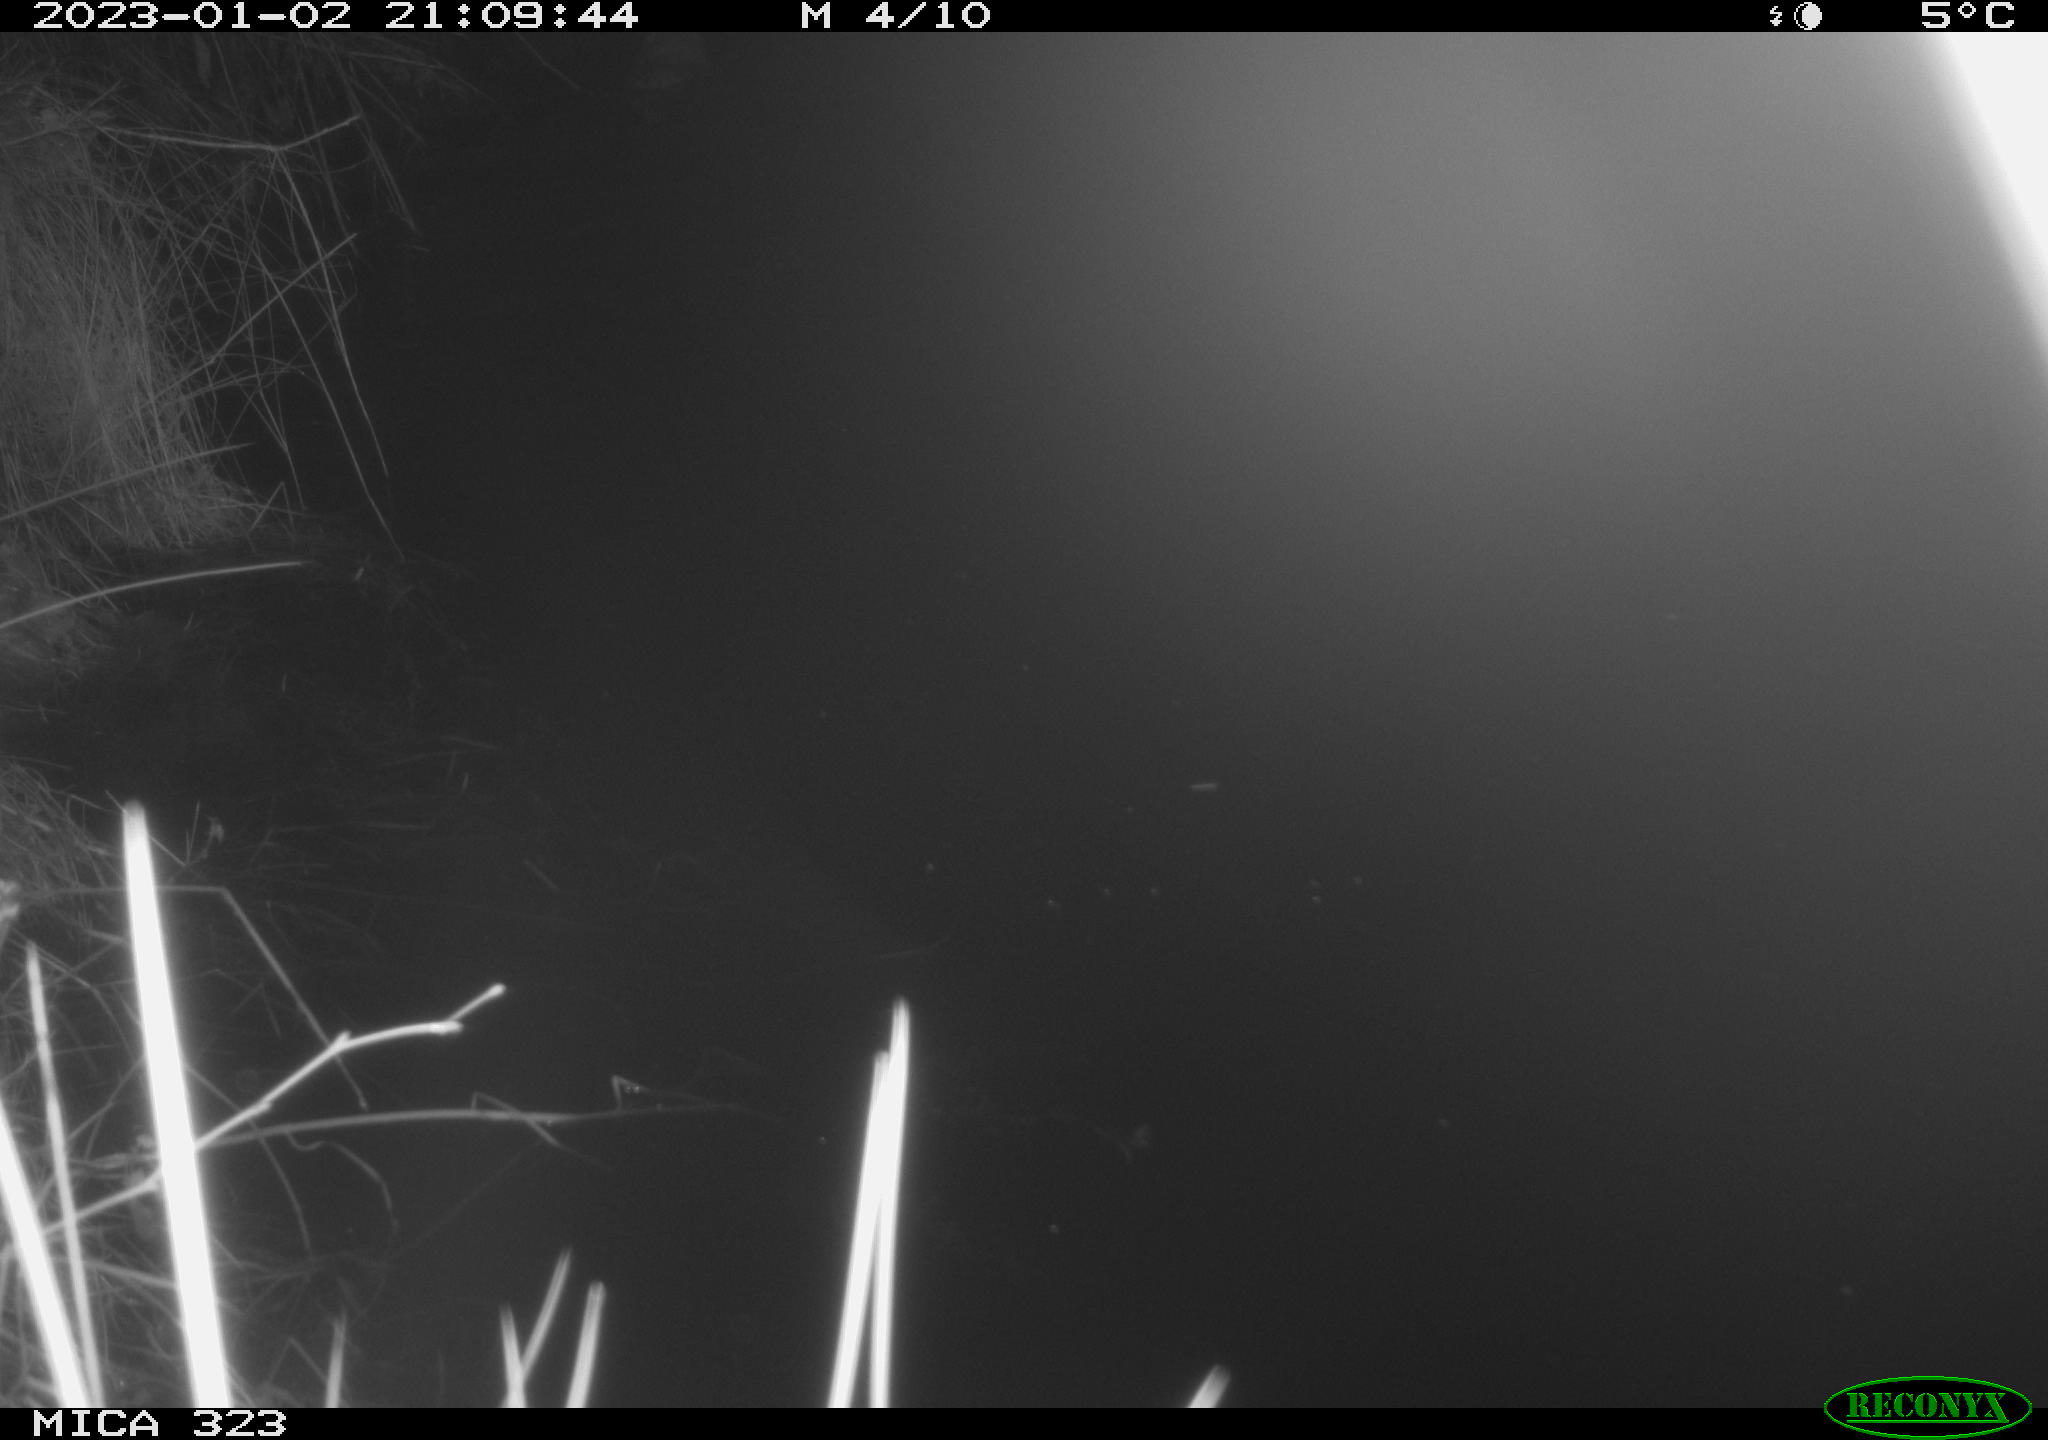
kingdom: Animalia
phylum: Chordata
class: Mammalia
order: Rodentia
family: Cricetidae
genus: Ondatra
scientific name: Ondatra zibethicus
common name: Muskrat
